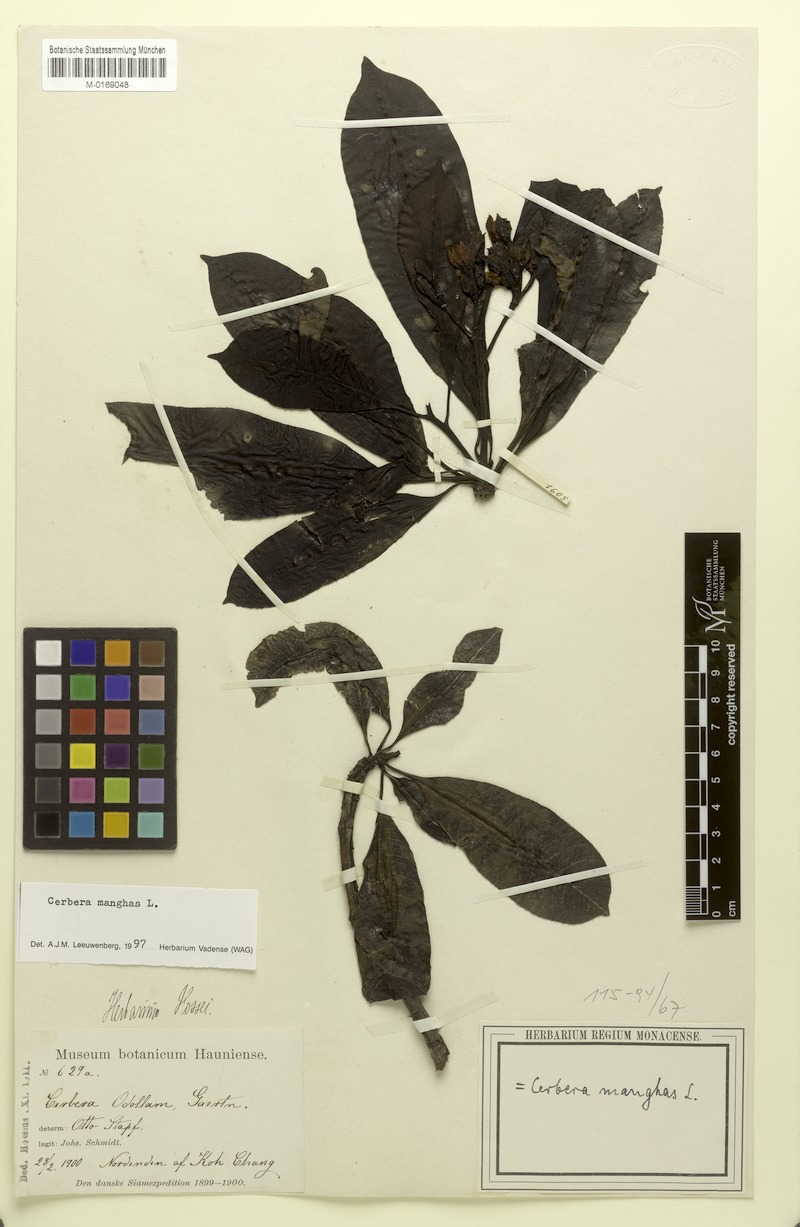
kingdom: Plantae
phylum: Tracheophyta
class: Magnoliopsida
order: Gentianales
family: Apocynaceae
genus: Cerbera
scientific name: Cerbera manghas
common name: Reva
